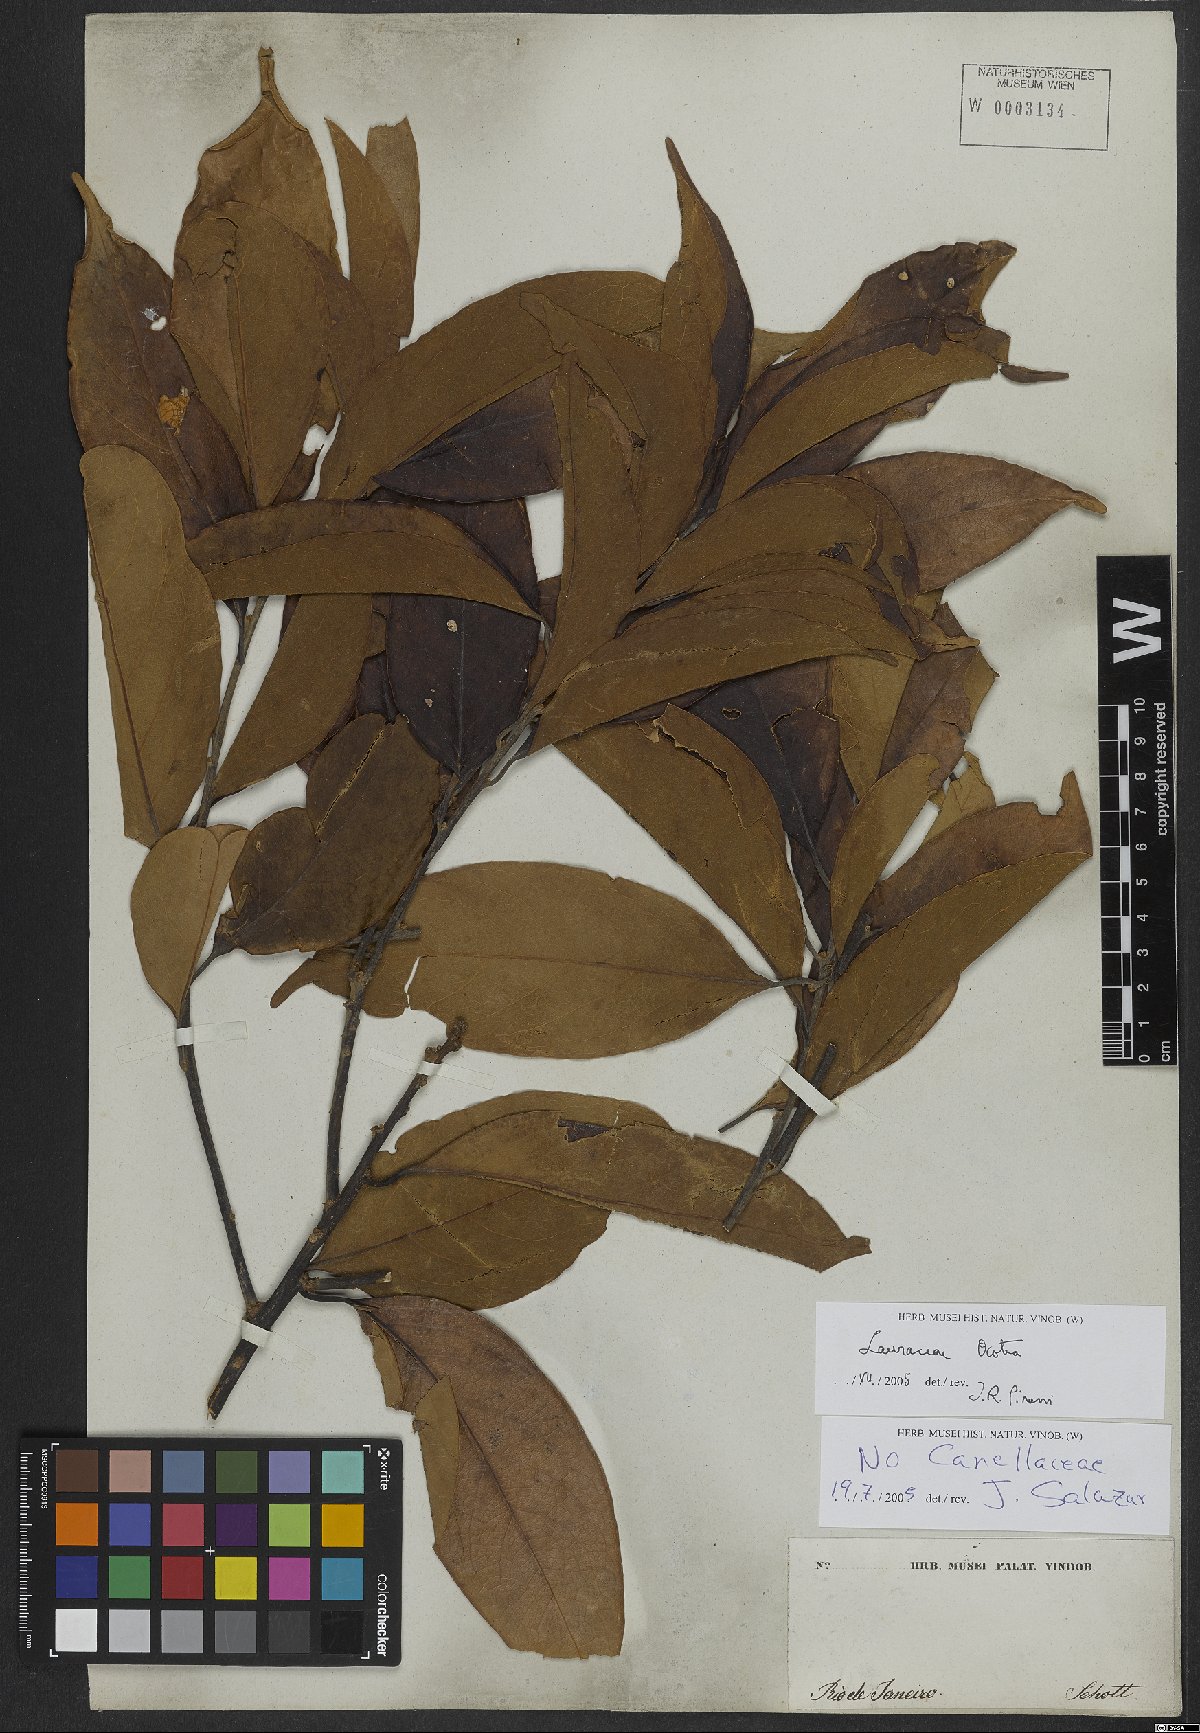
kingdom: Plantae
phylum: Tracheophyta
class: Magnoliopsida
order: Laurales
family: Lauraceae
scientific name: Lauraceae
